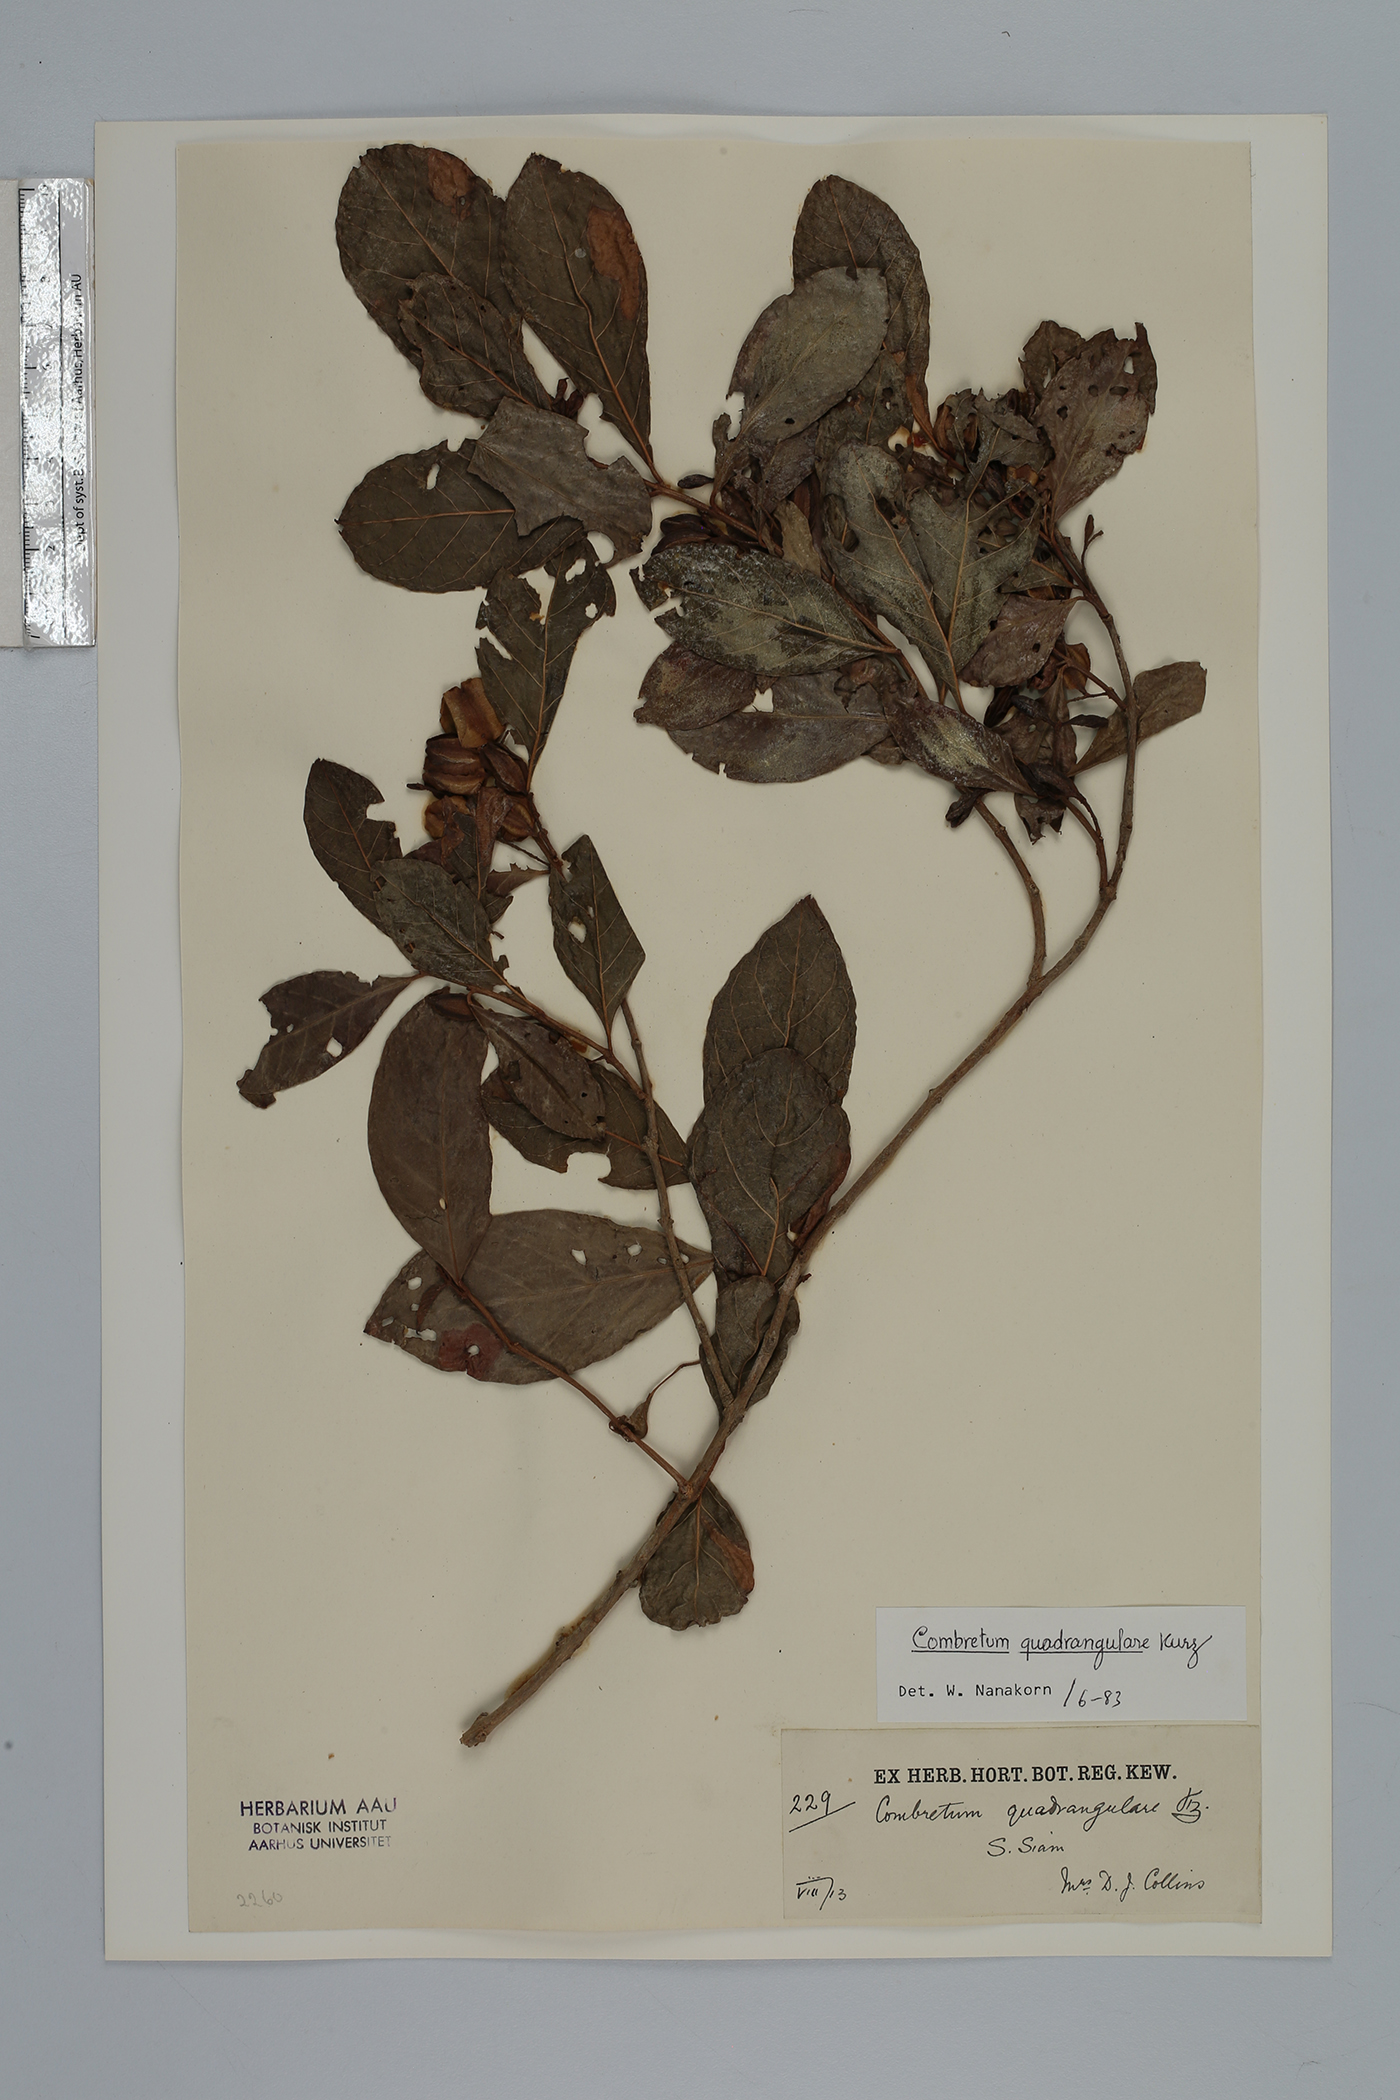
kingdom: Plantae
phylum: Tracheophyta
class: Magnoliopsida
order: Myrtales
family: Combretaceae
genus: Combretum
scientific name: Combretum quadrangulare
